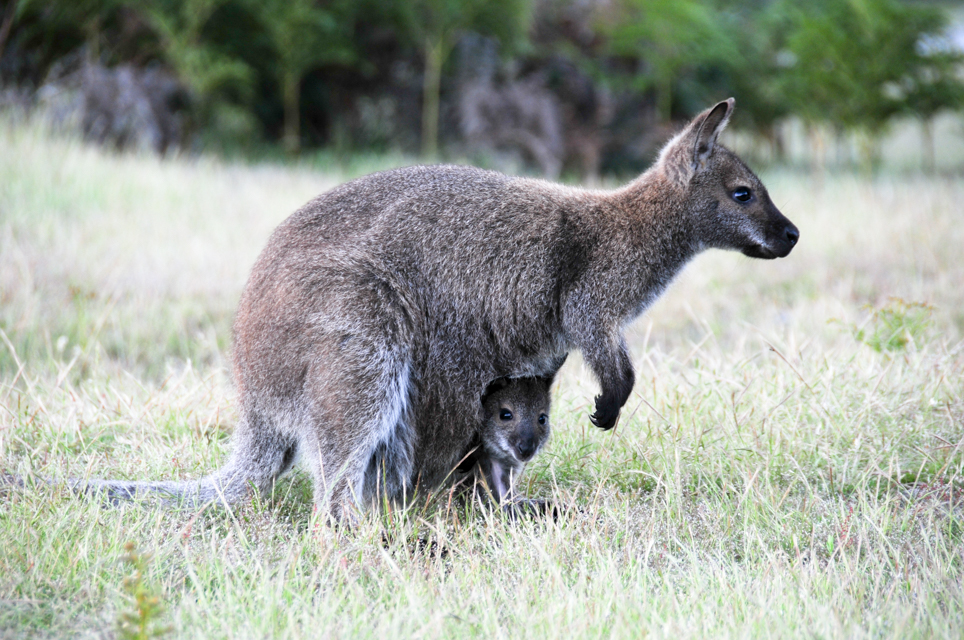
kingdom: Animalia
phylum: Chordata
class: Mammalia
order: Diprotodontia
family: Macropodidae
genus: Macropus
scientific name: Macropus rufogriseus
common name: Red-necked wallaby
